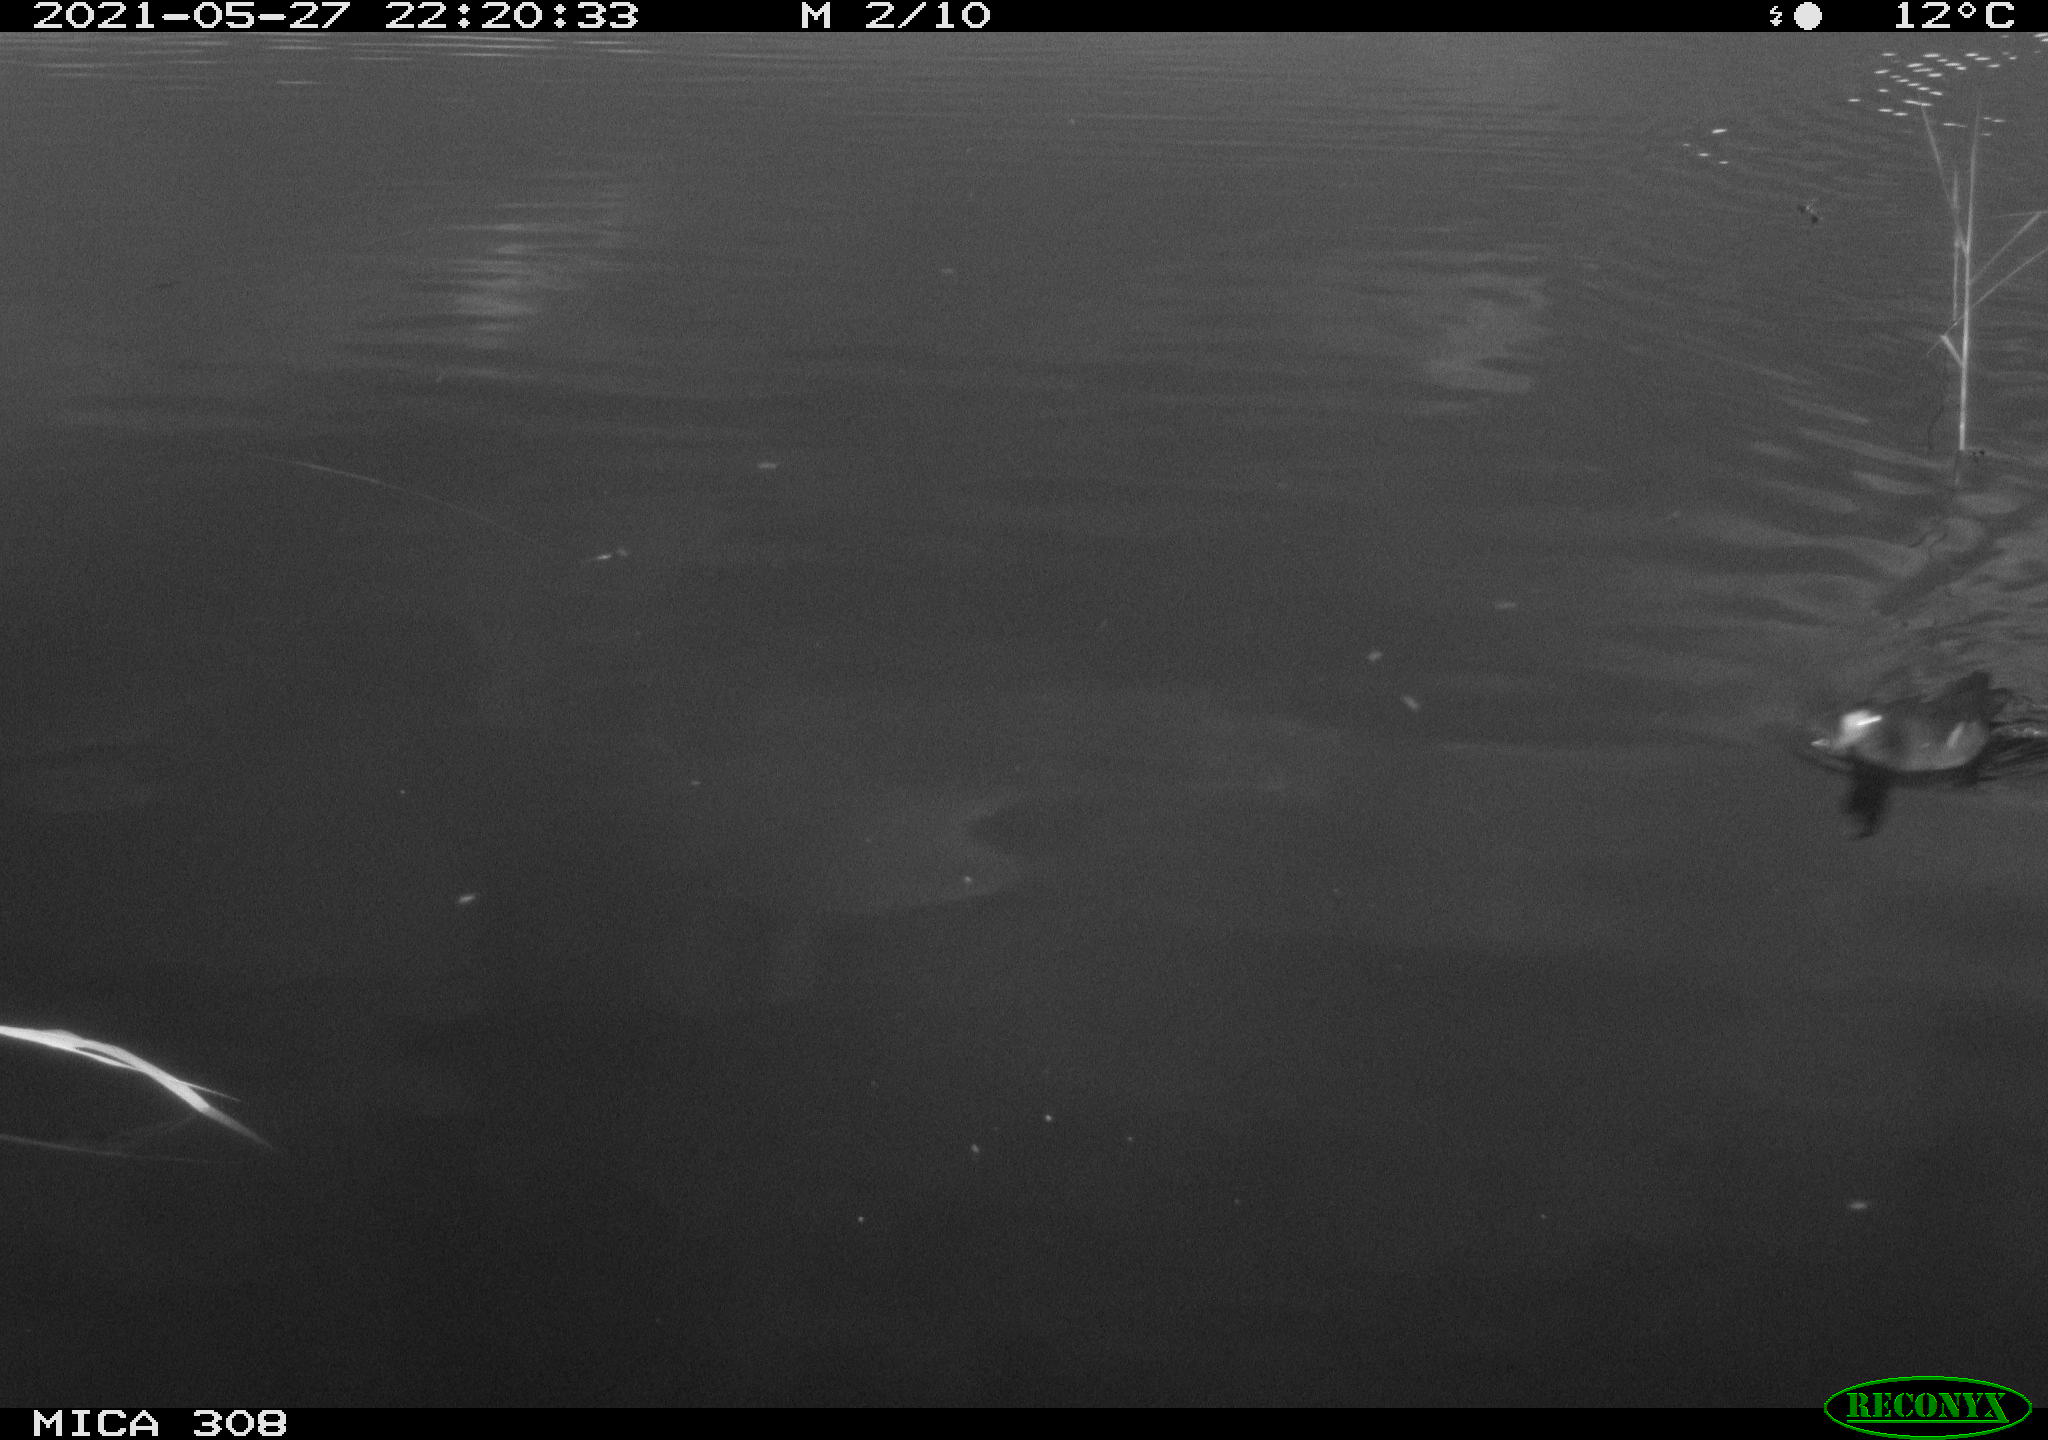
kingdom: Animalia
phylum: Chordata
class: Aves
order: Gruiformes
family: Rallidae
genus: Gallinula
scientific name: Gallinula chloropus
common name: Common moorhen
